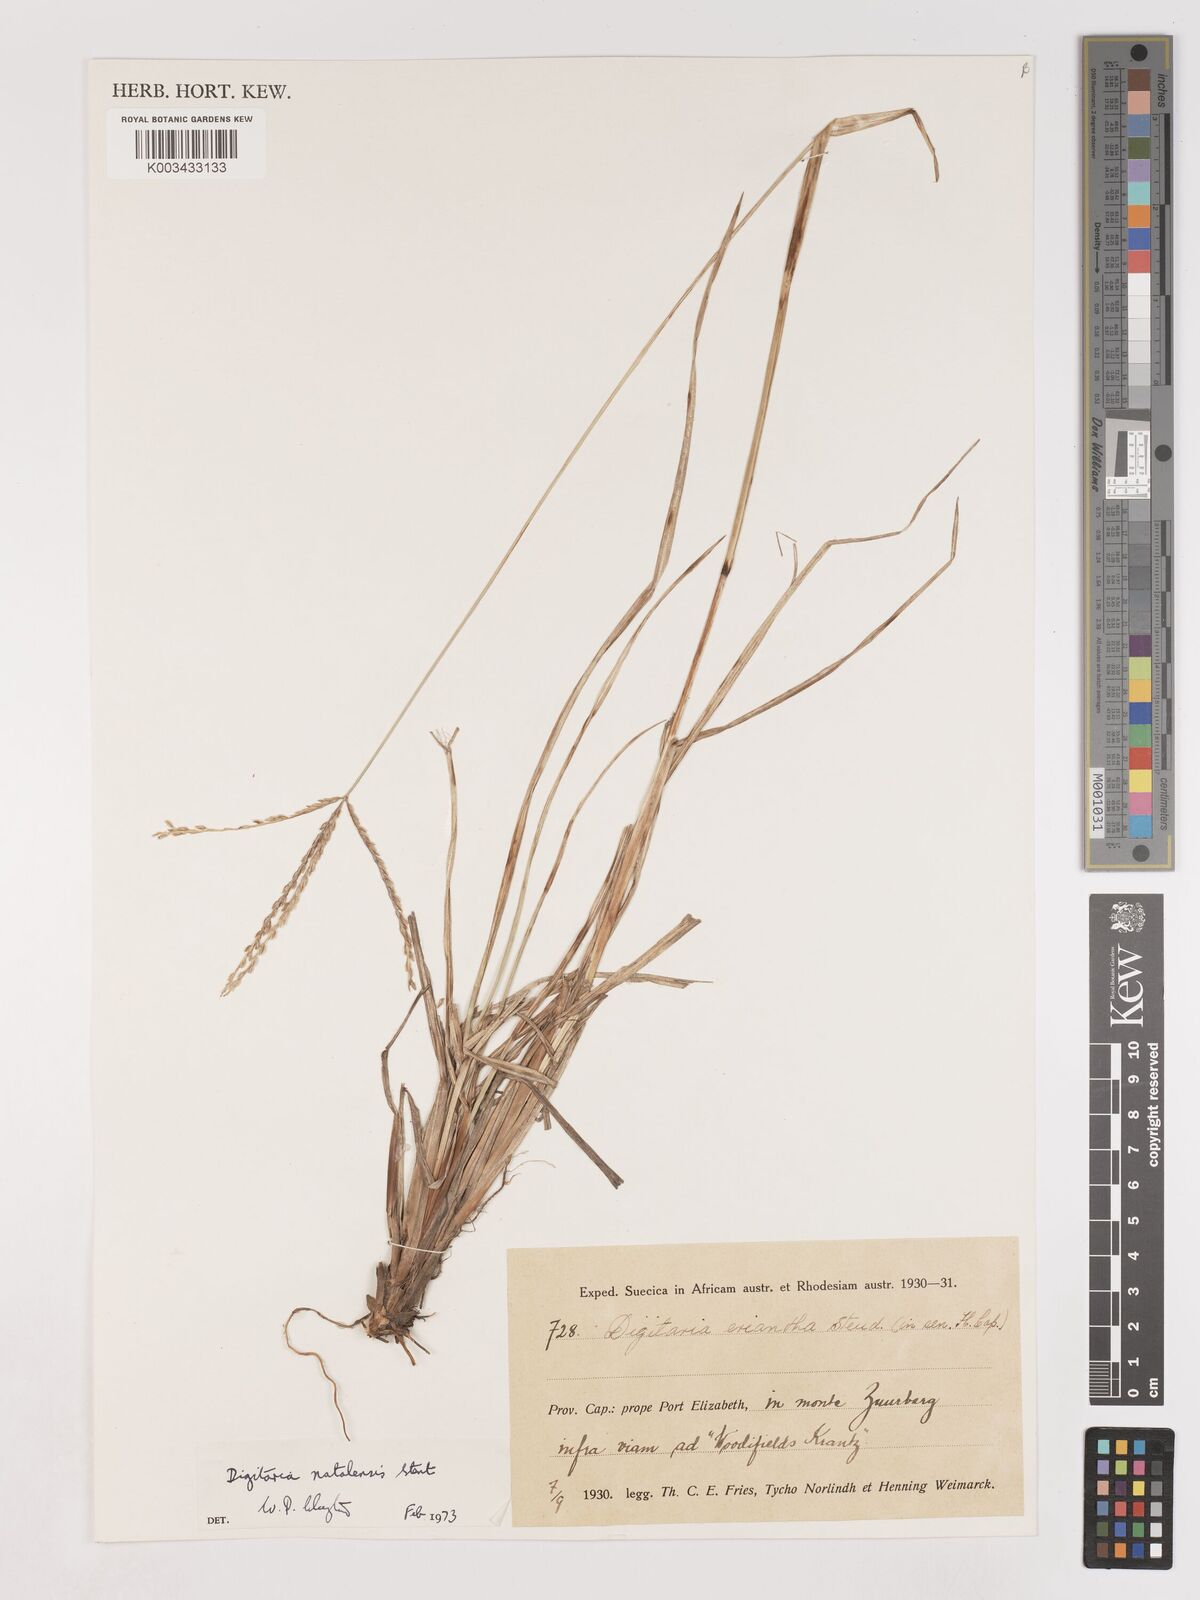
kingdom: Plantae
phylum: Tracheophyta
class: Liliopsida
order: Poales
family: Poaceae
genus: Digitaria
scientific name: Digitaria natalensis
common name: Coast finger grass
